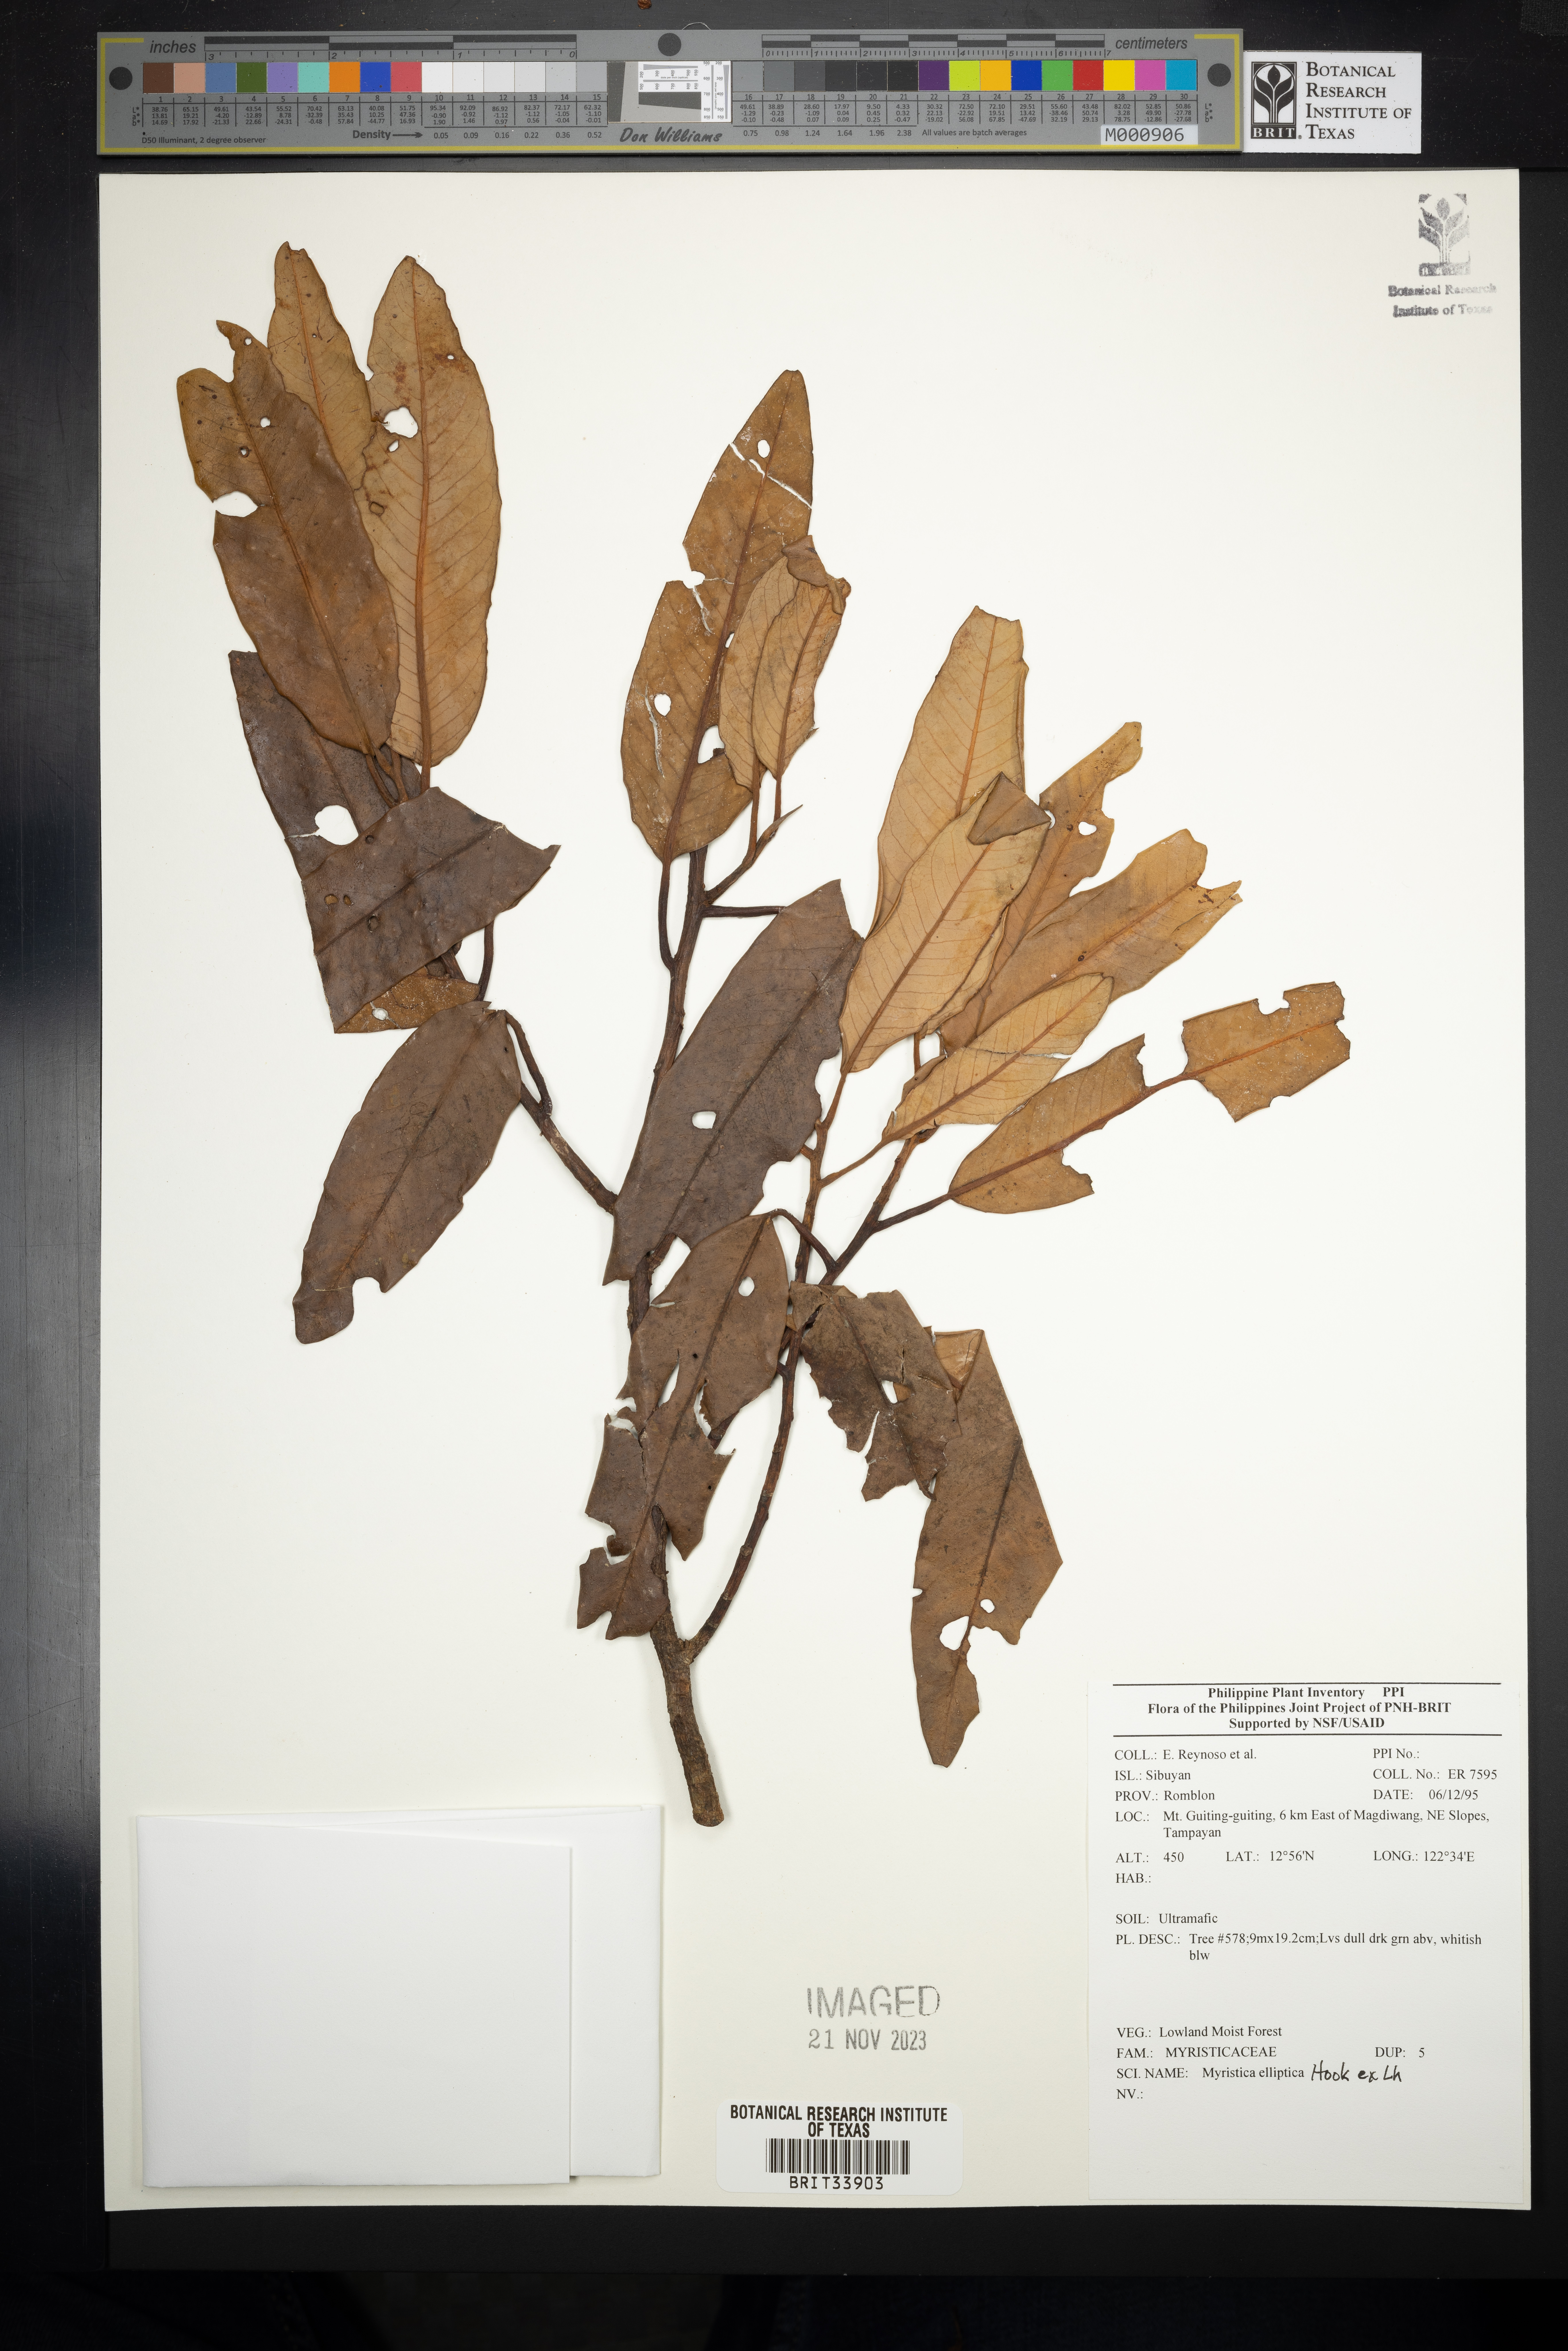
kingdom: Plantae
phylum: Tracheophyta
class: Magnoliopsida
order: Magnoliales
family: Myristicaceae
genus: Myristica
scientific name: Myristica
